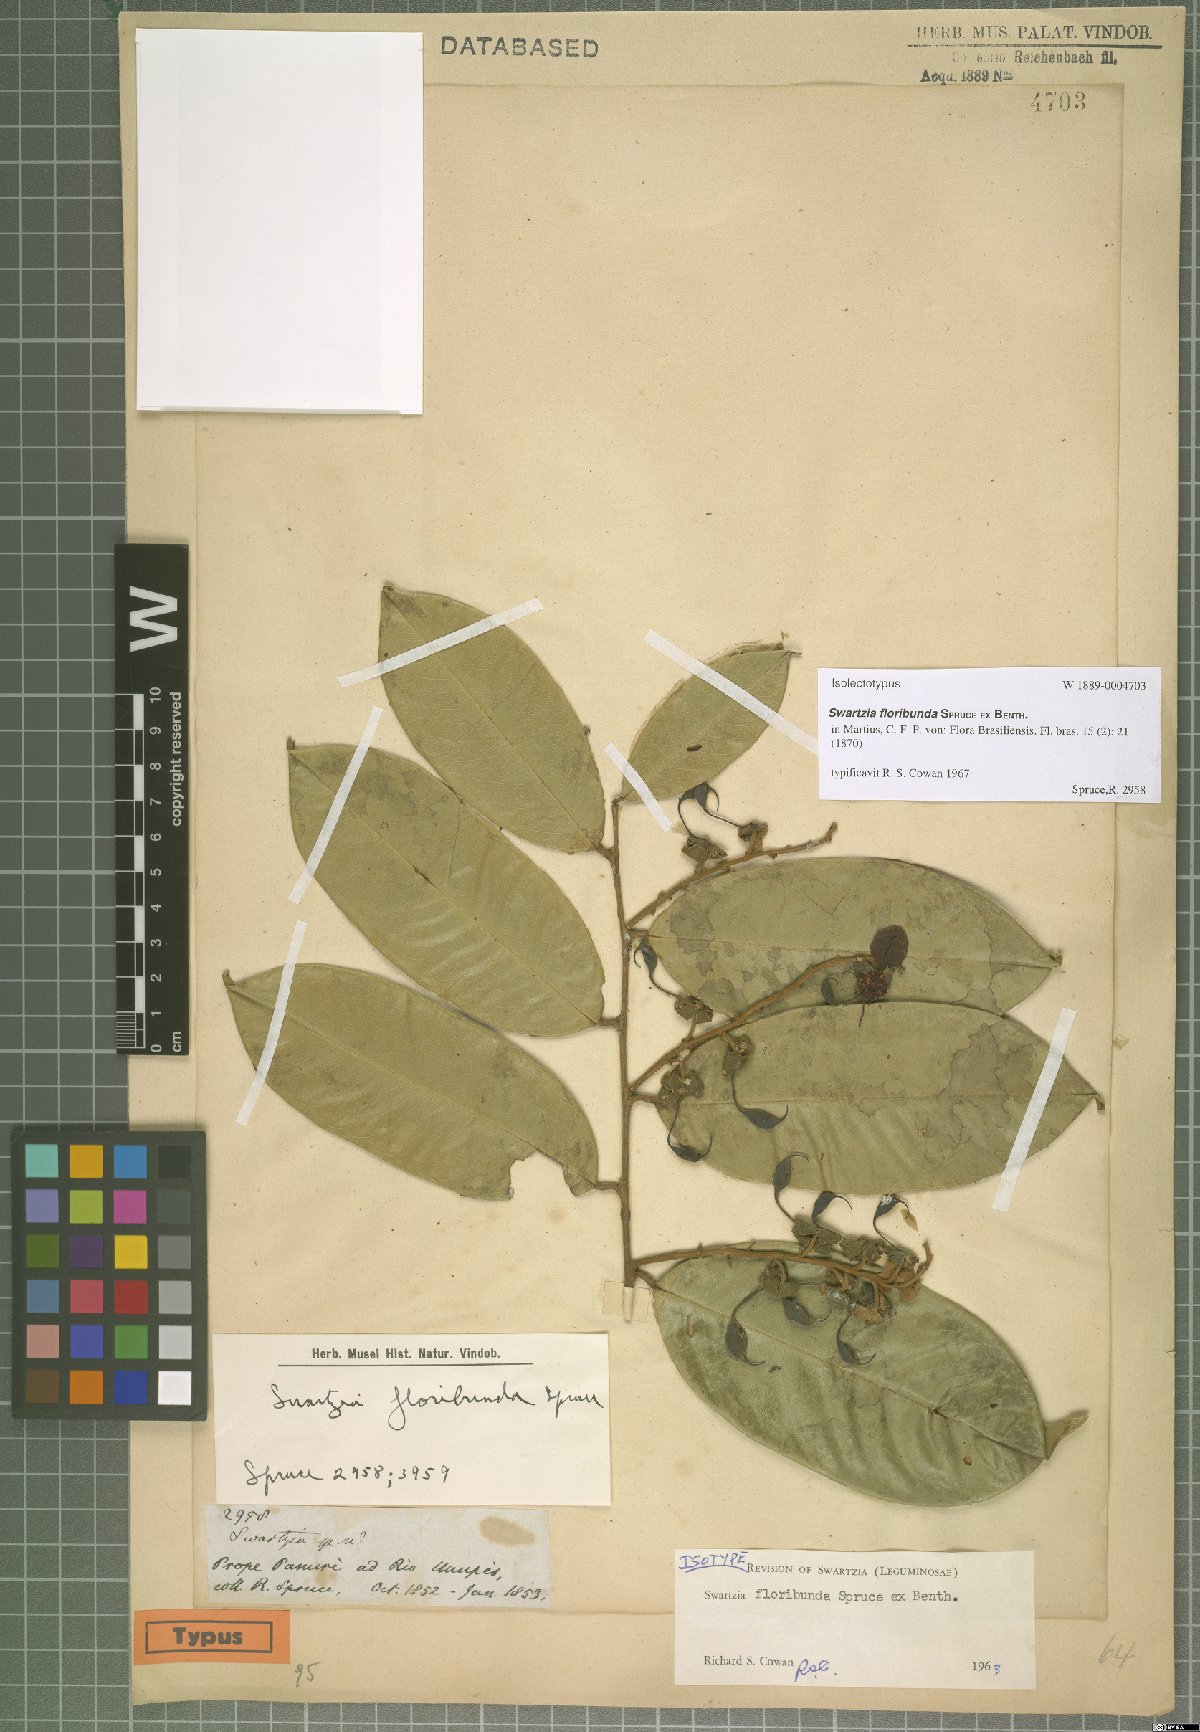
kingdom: Plantae
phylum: Tracheophyta
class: Magnoliopsida
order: Fabales
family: Fabaceae
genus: Swartzia
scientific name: Swartzia floribunda
